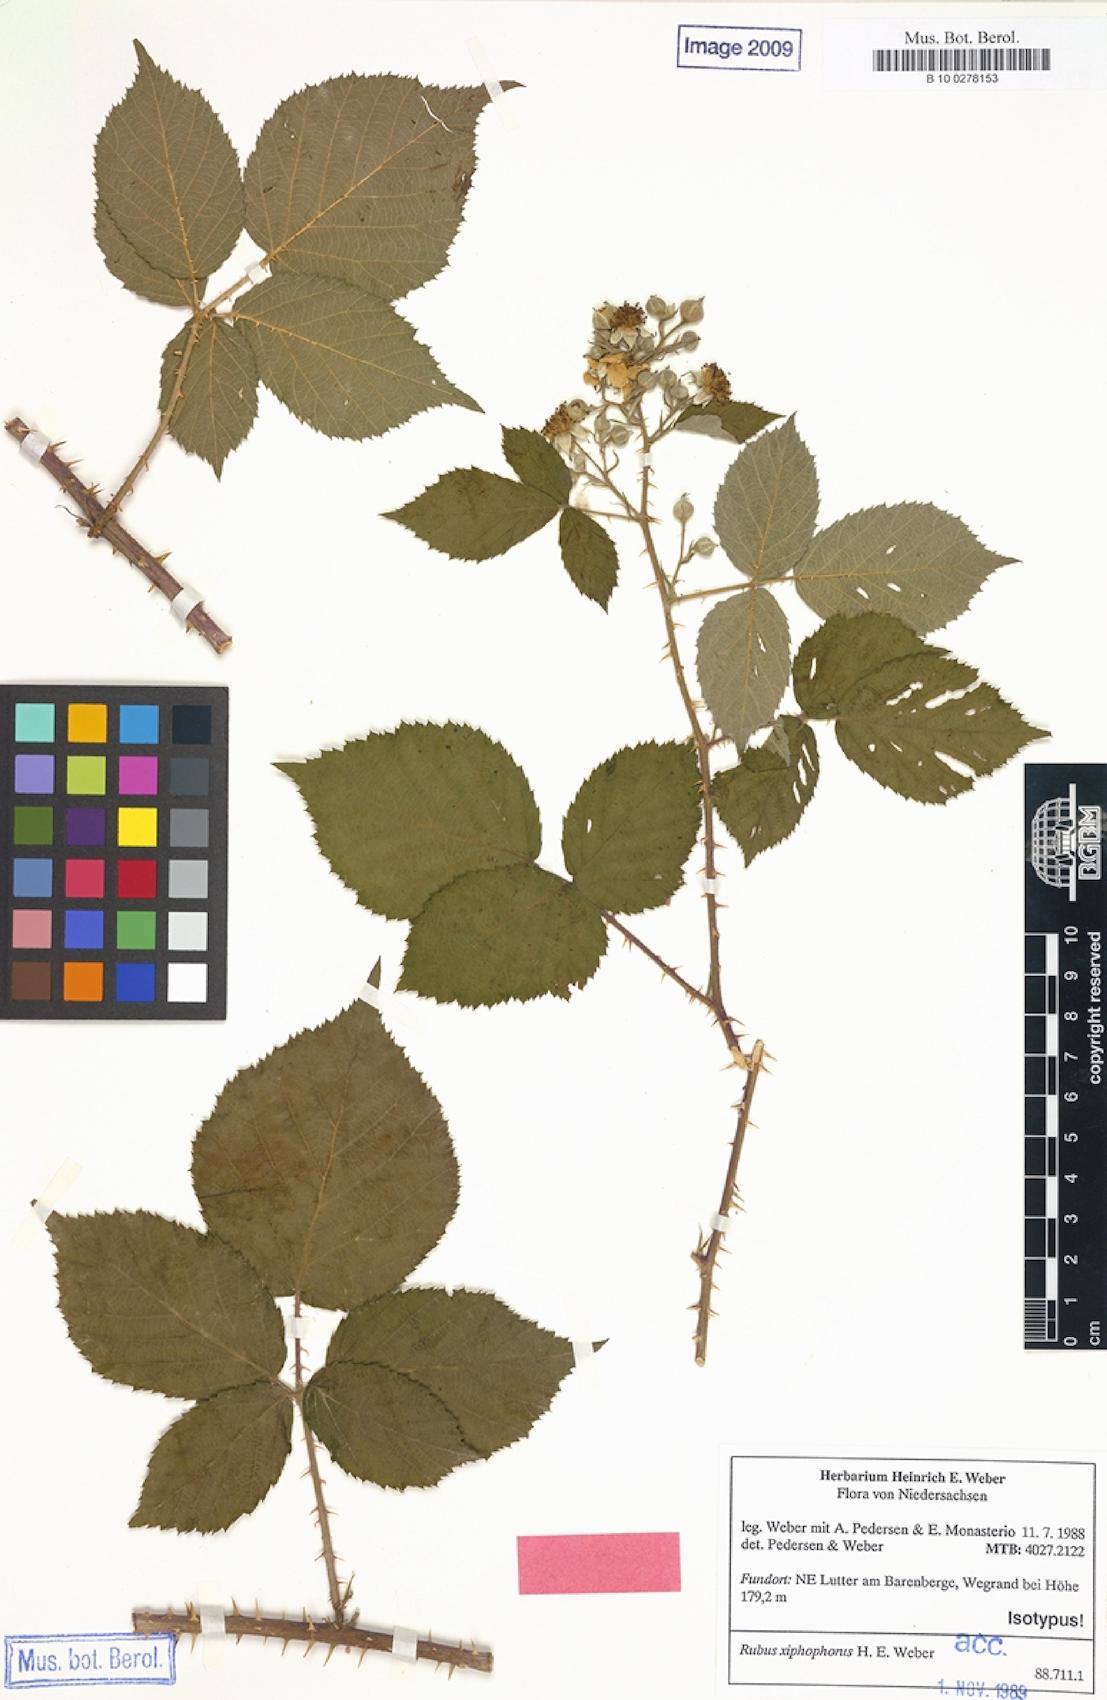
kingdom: Plantae
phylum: Tracheophyta
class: Magnoliopsida
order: Rosales
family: Rosaceae
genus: Rubus
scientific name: Rubus xiphophorus
